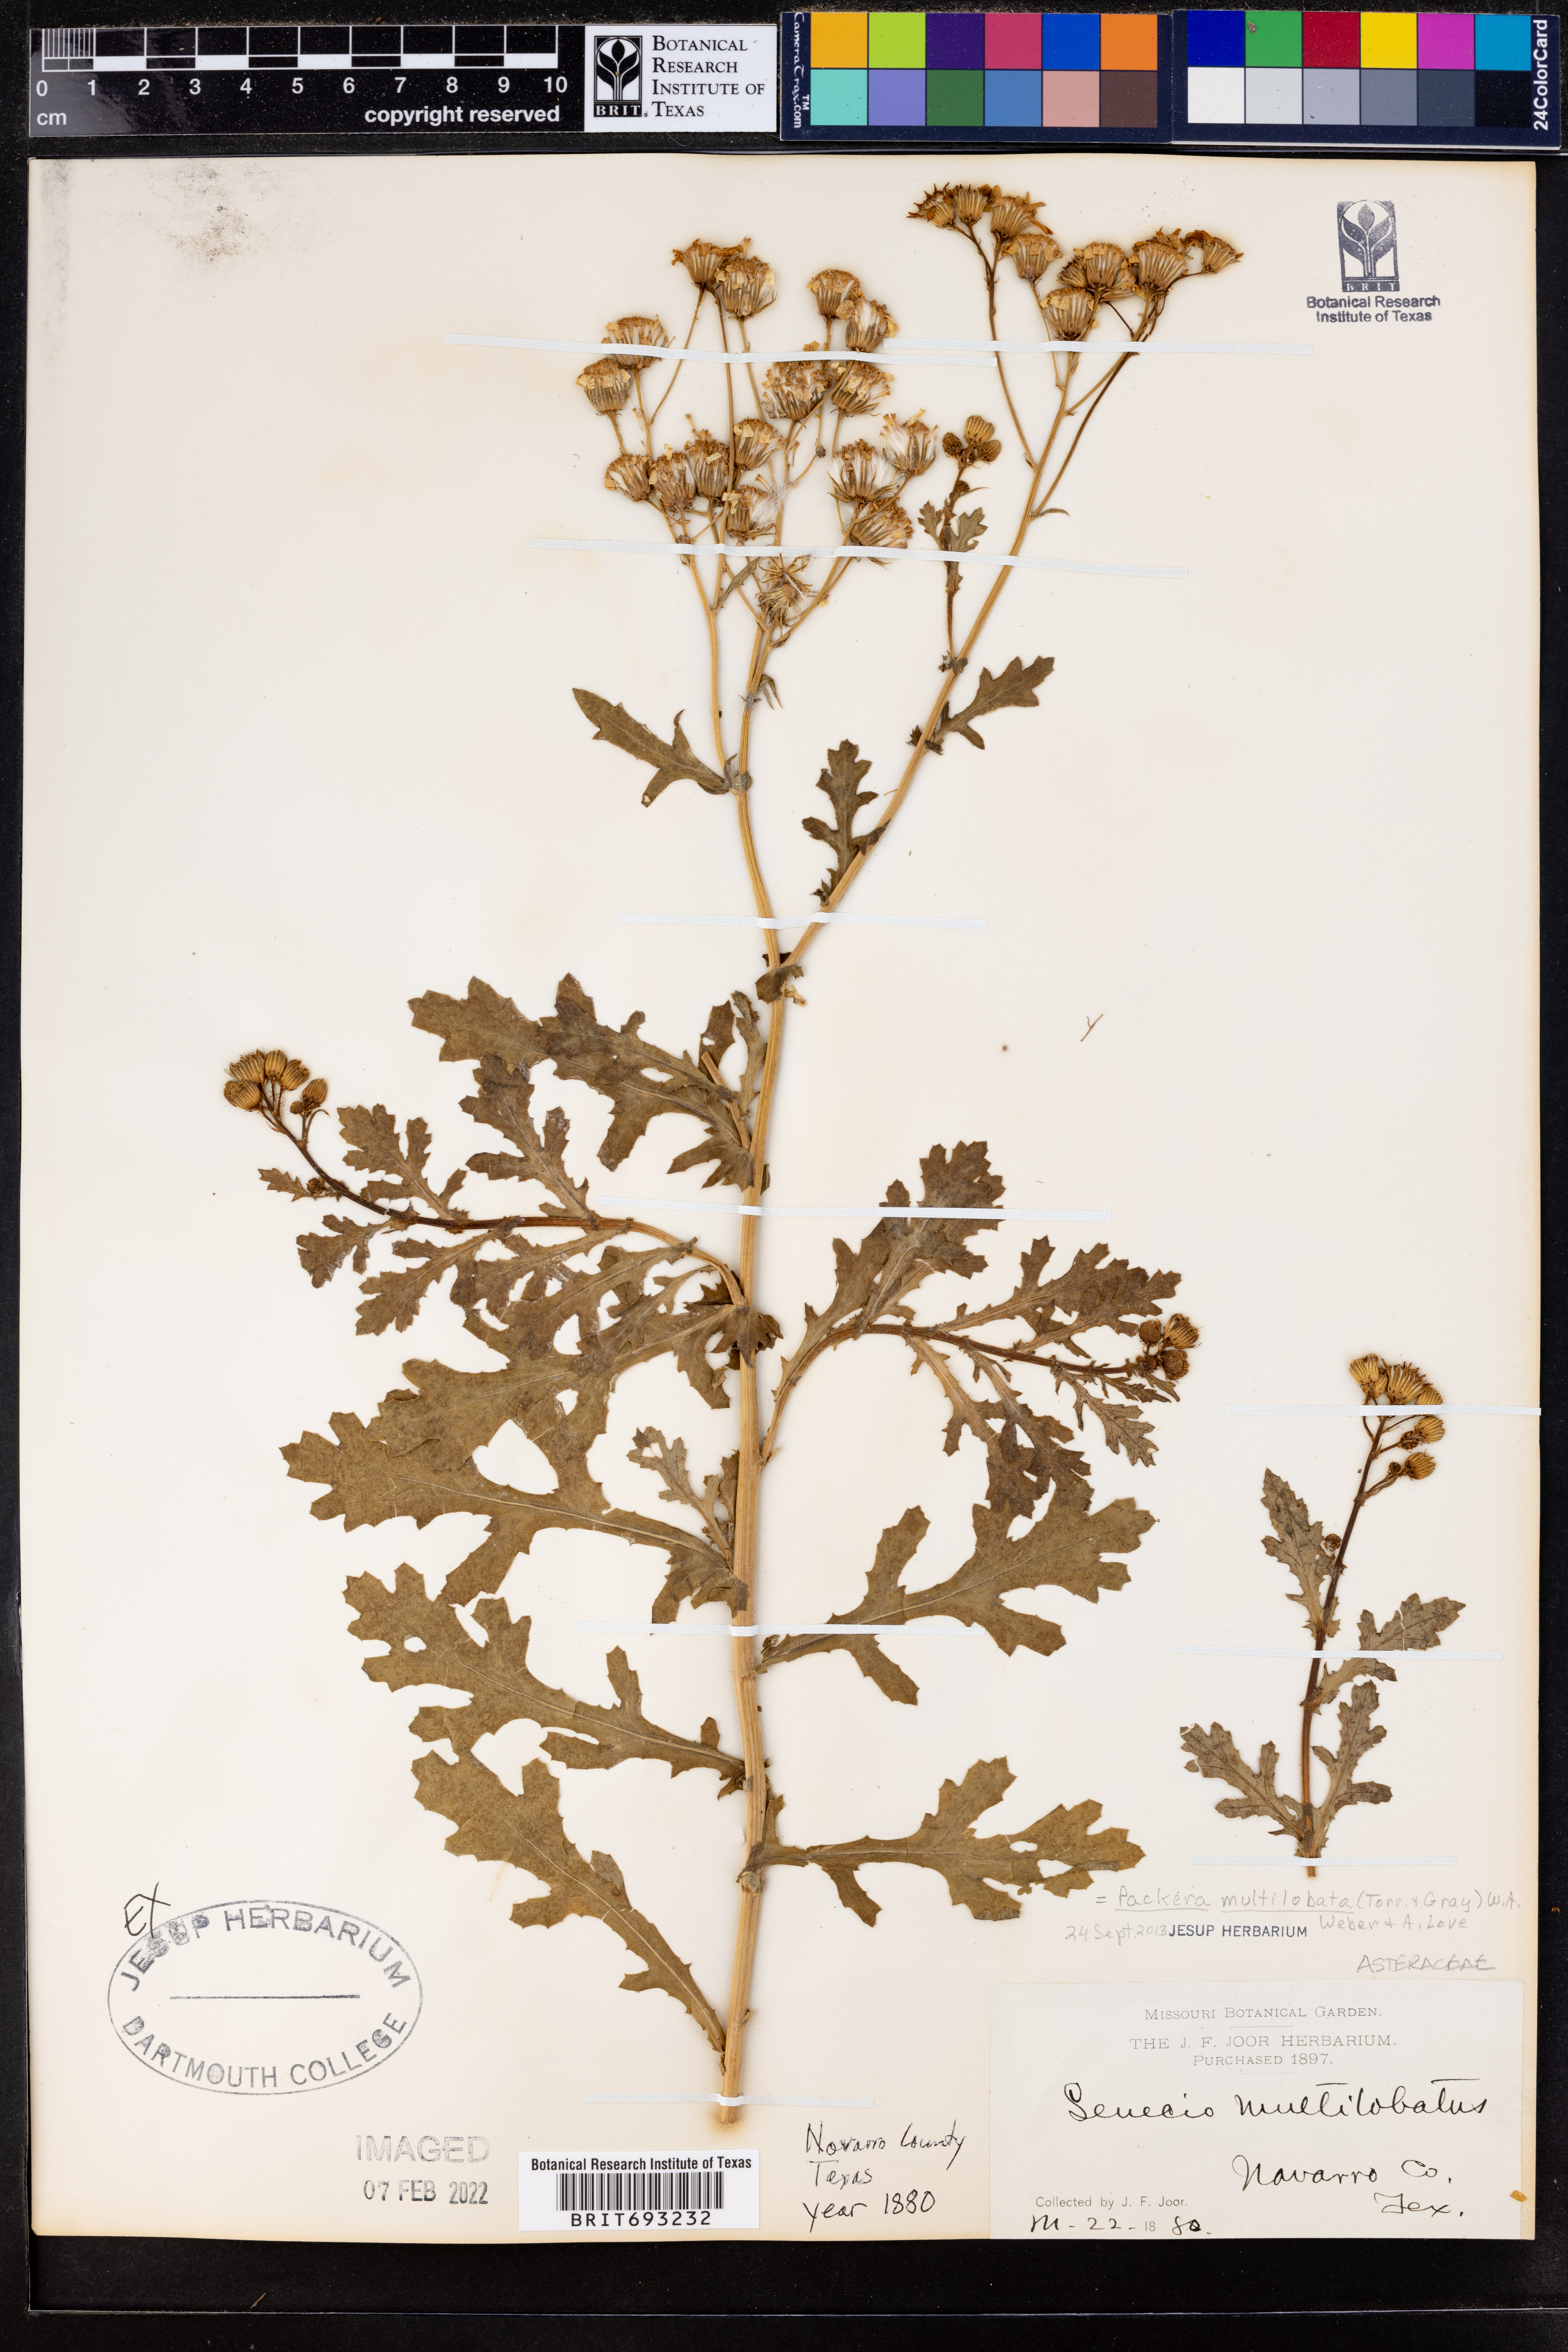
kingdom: Plantae
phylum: Tracheophyta
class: Magnoliopsida
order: Asterales
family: Asteraceae
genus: Packera
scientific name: Packera multilobata
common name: Lobe-leaf groundsel
